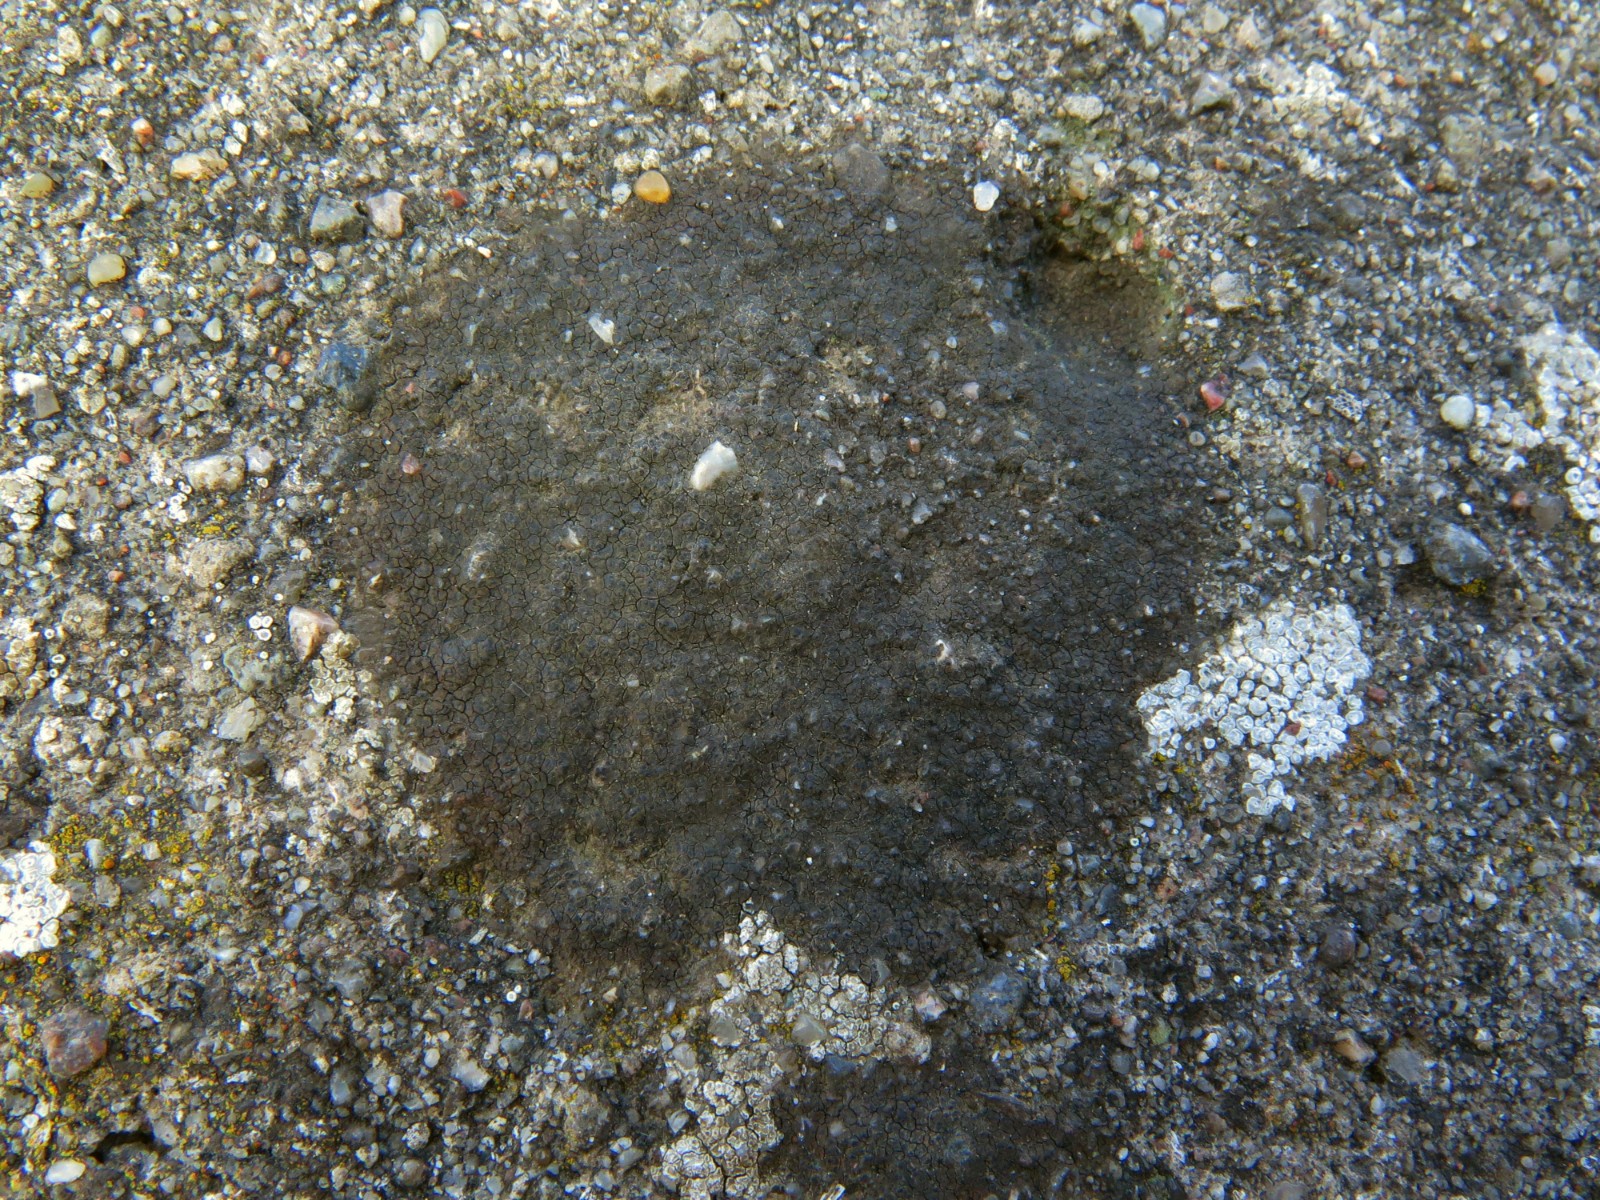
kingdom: Fungi
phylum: Ascomycota
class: Eurotiomycetes
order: Verrucariales
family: Verrucariaceae
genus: Verrucaria
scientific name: Verrucaria nigrescens
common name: sortbrun vortelav
